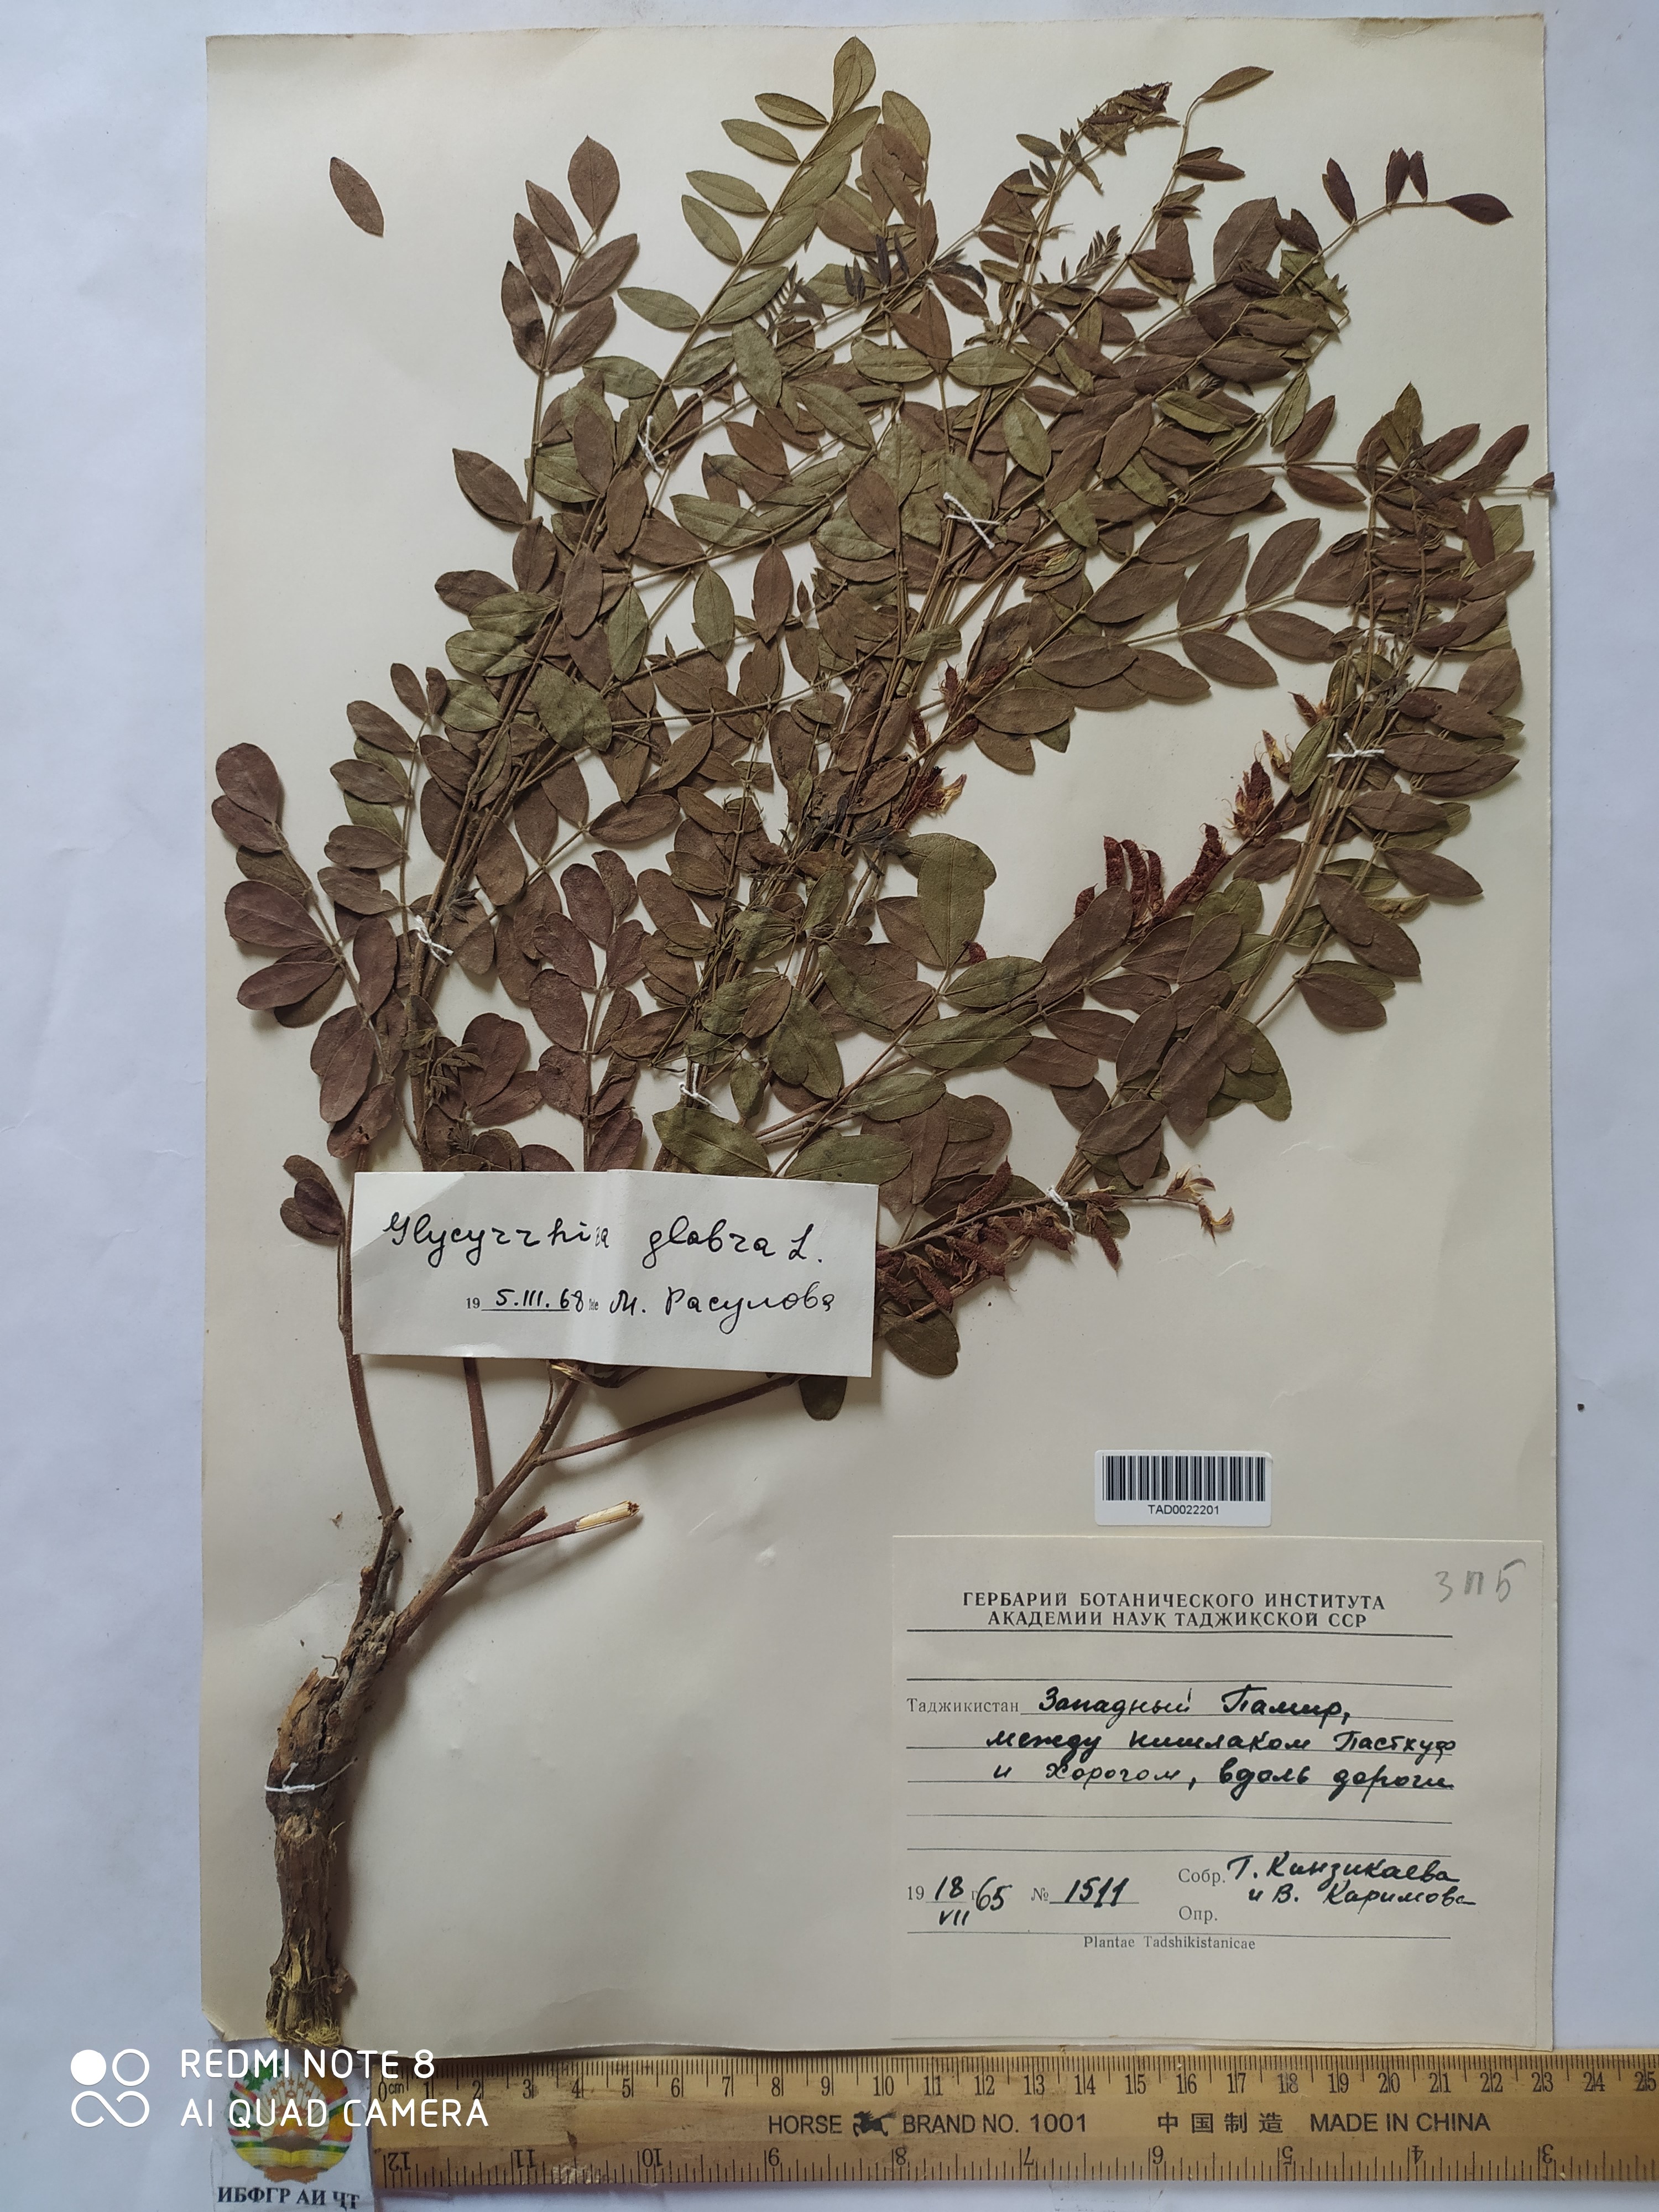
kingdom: Plantae
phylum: Tracheophyta
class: Magnoliopsida
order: Fabales
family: Fabaceae
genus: Glycyrrhiza
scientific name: Glycyrrhiza glabra
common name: Liquorice
